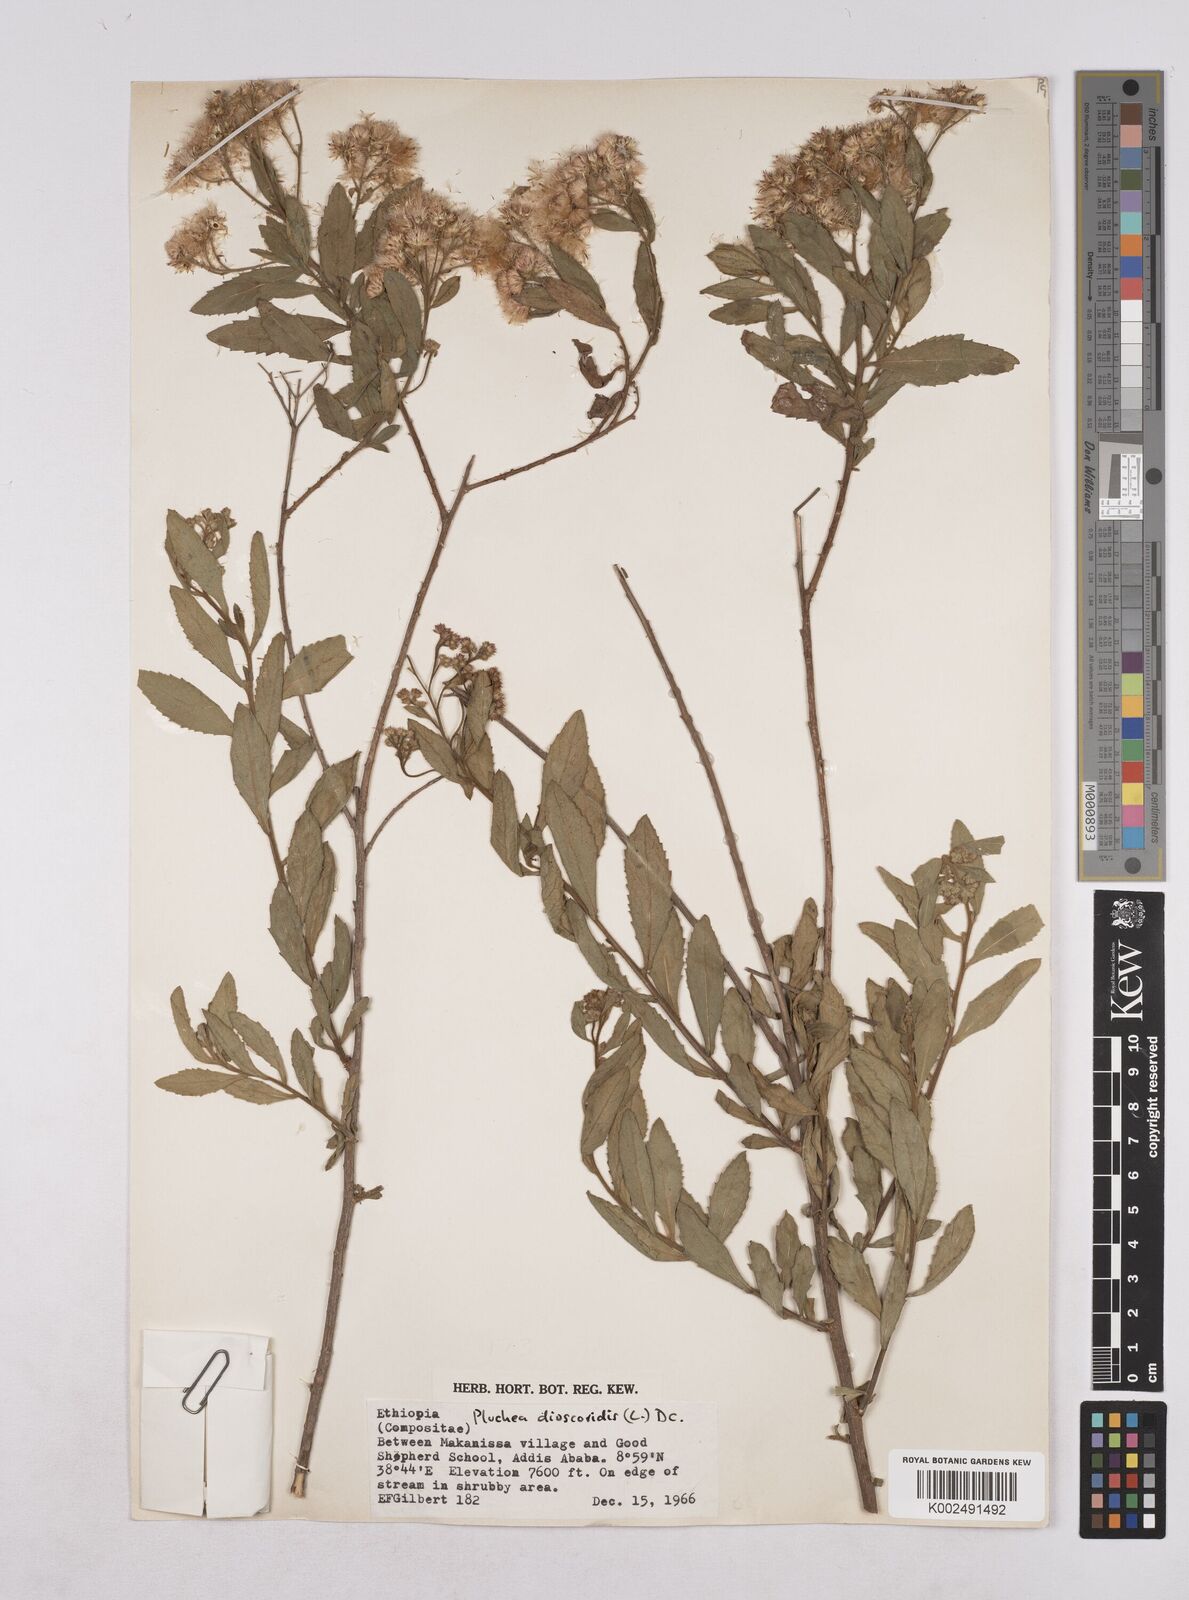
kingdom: Plantae
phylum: Tracheophyta
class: Magnoliopsida
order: Asterales
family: Asteraceae
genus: Pluchea
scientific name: Pluchea dioscoridis
